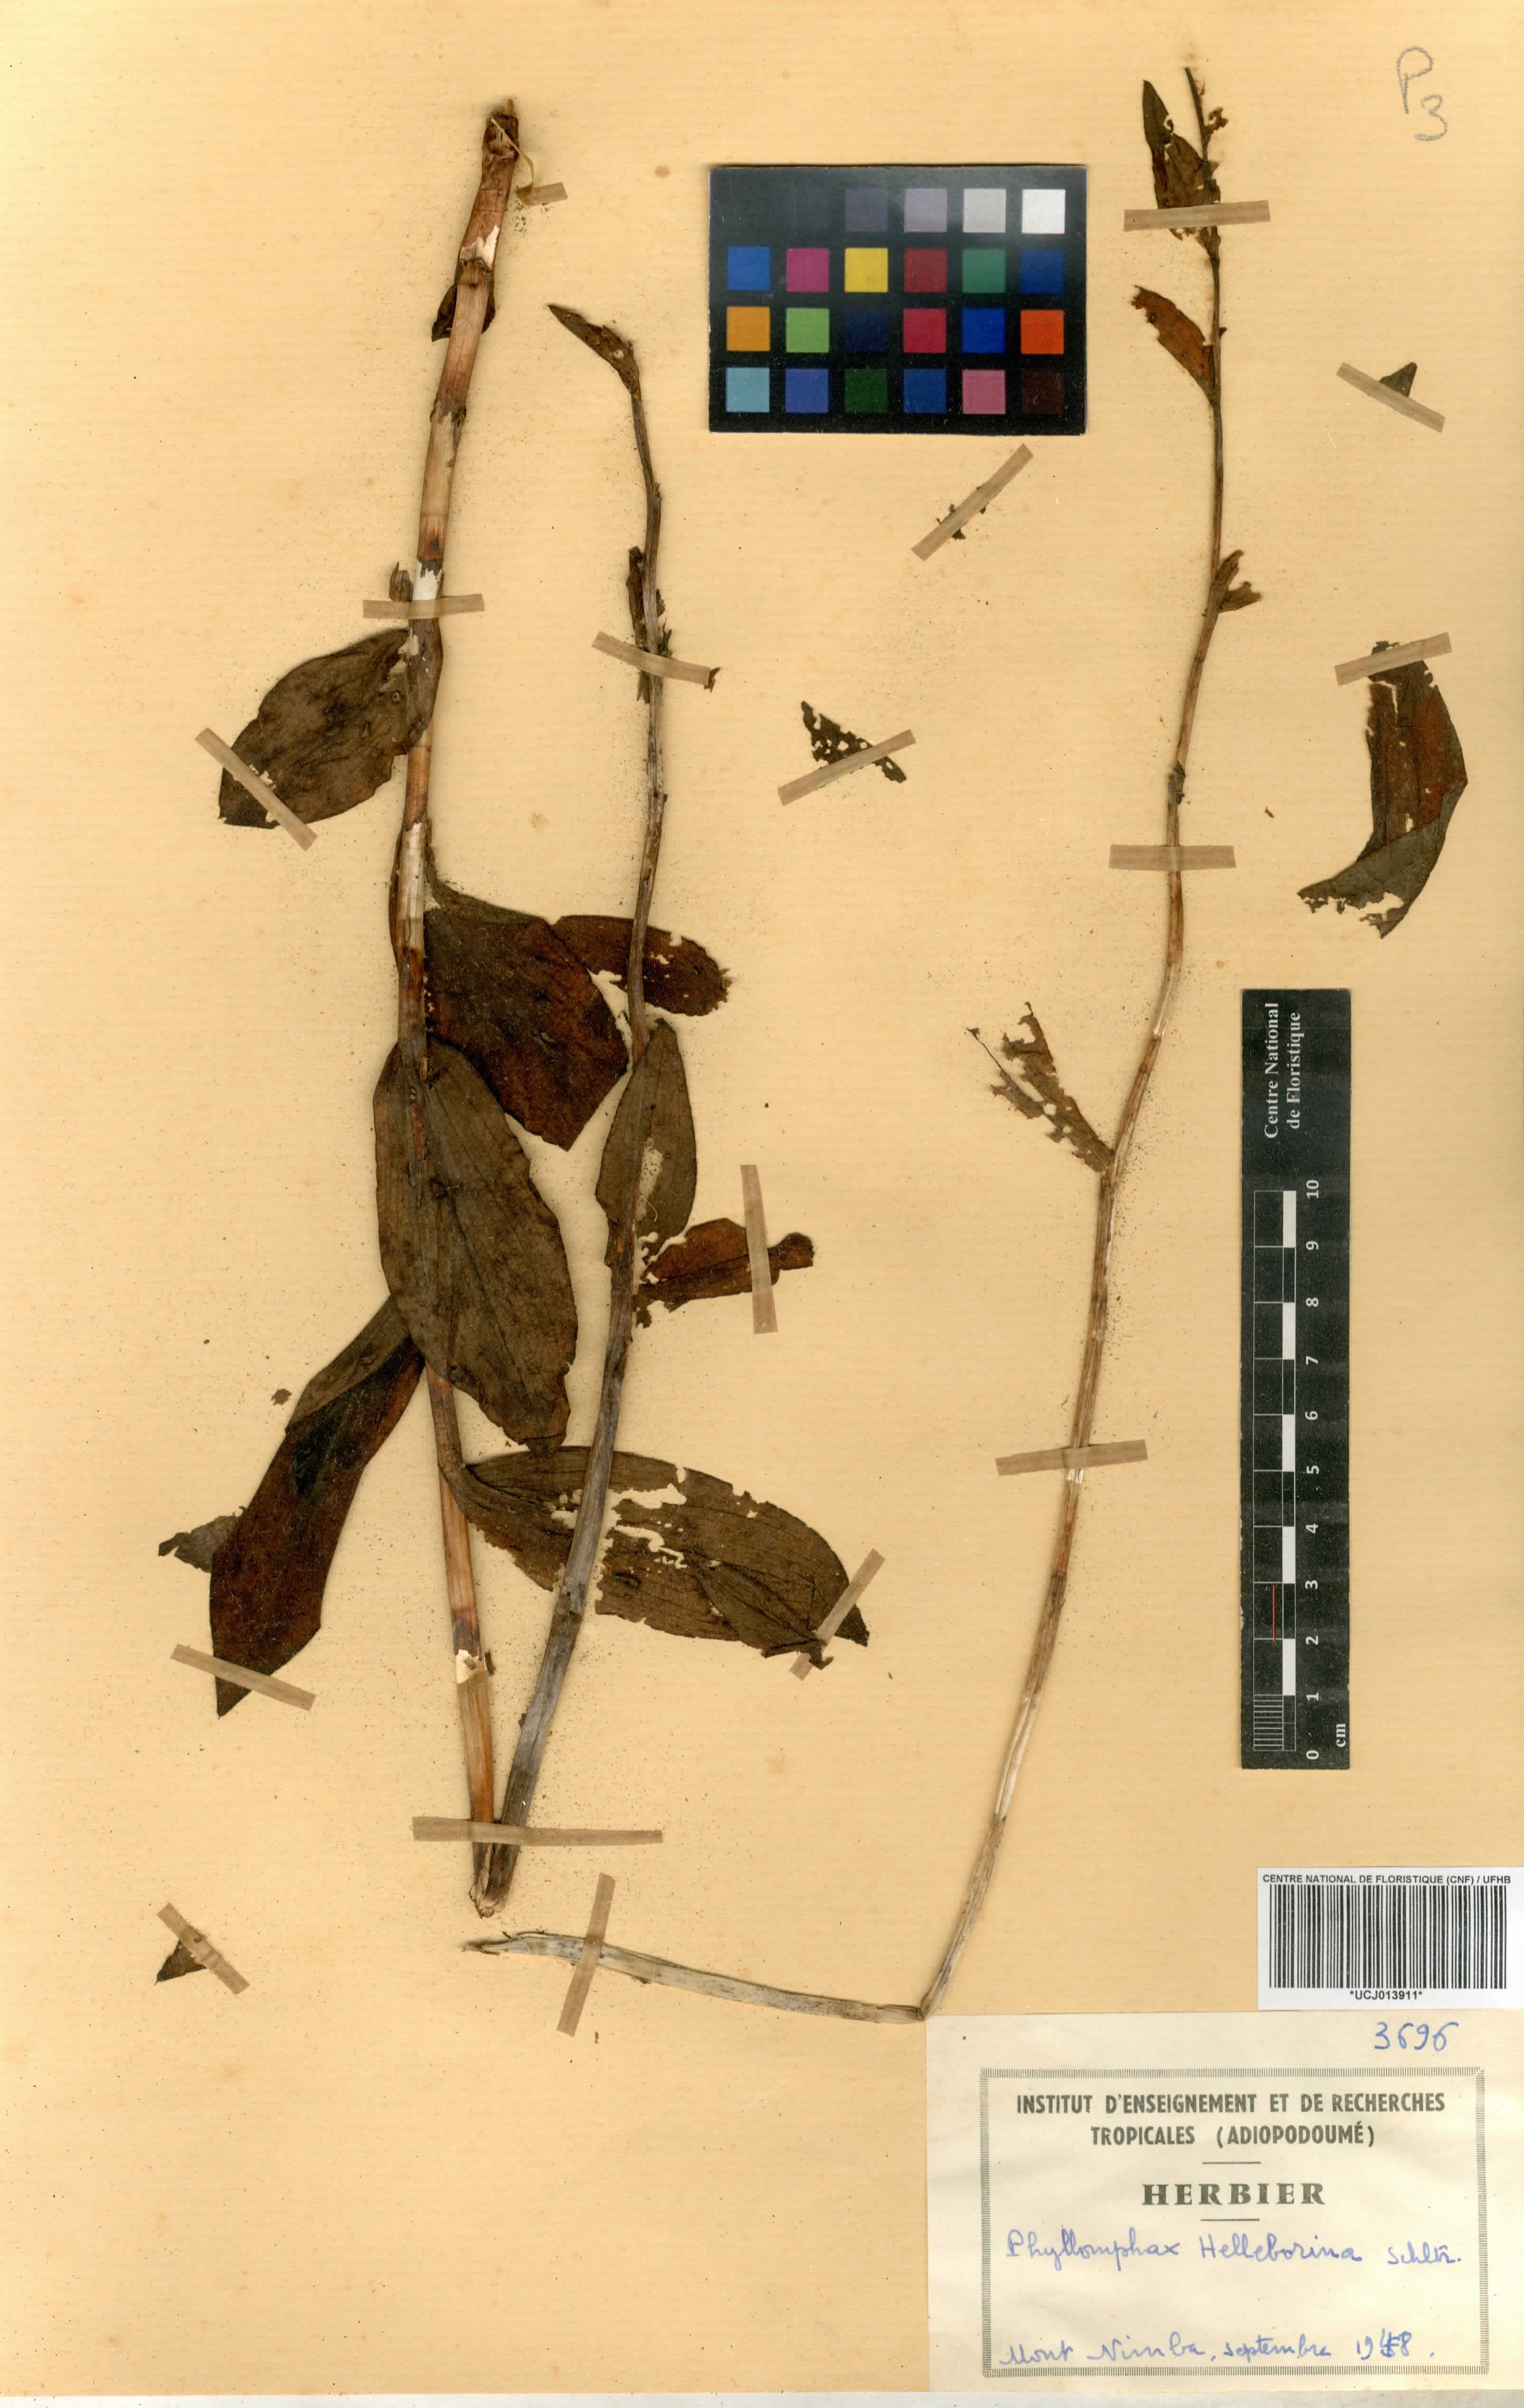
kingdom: Plantae
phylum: Tracheophyta
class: Liliopsida
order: Asparagales
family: Orchidaceae
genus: Brachycorythis
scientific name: Brachycorythis macrantha
